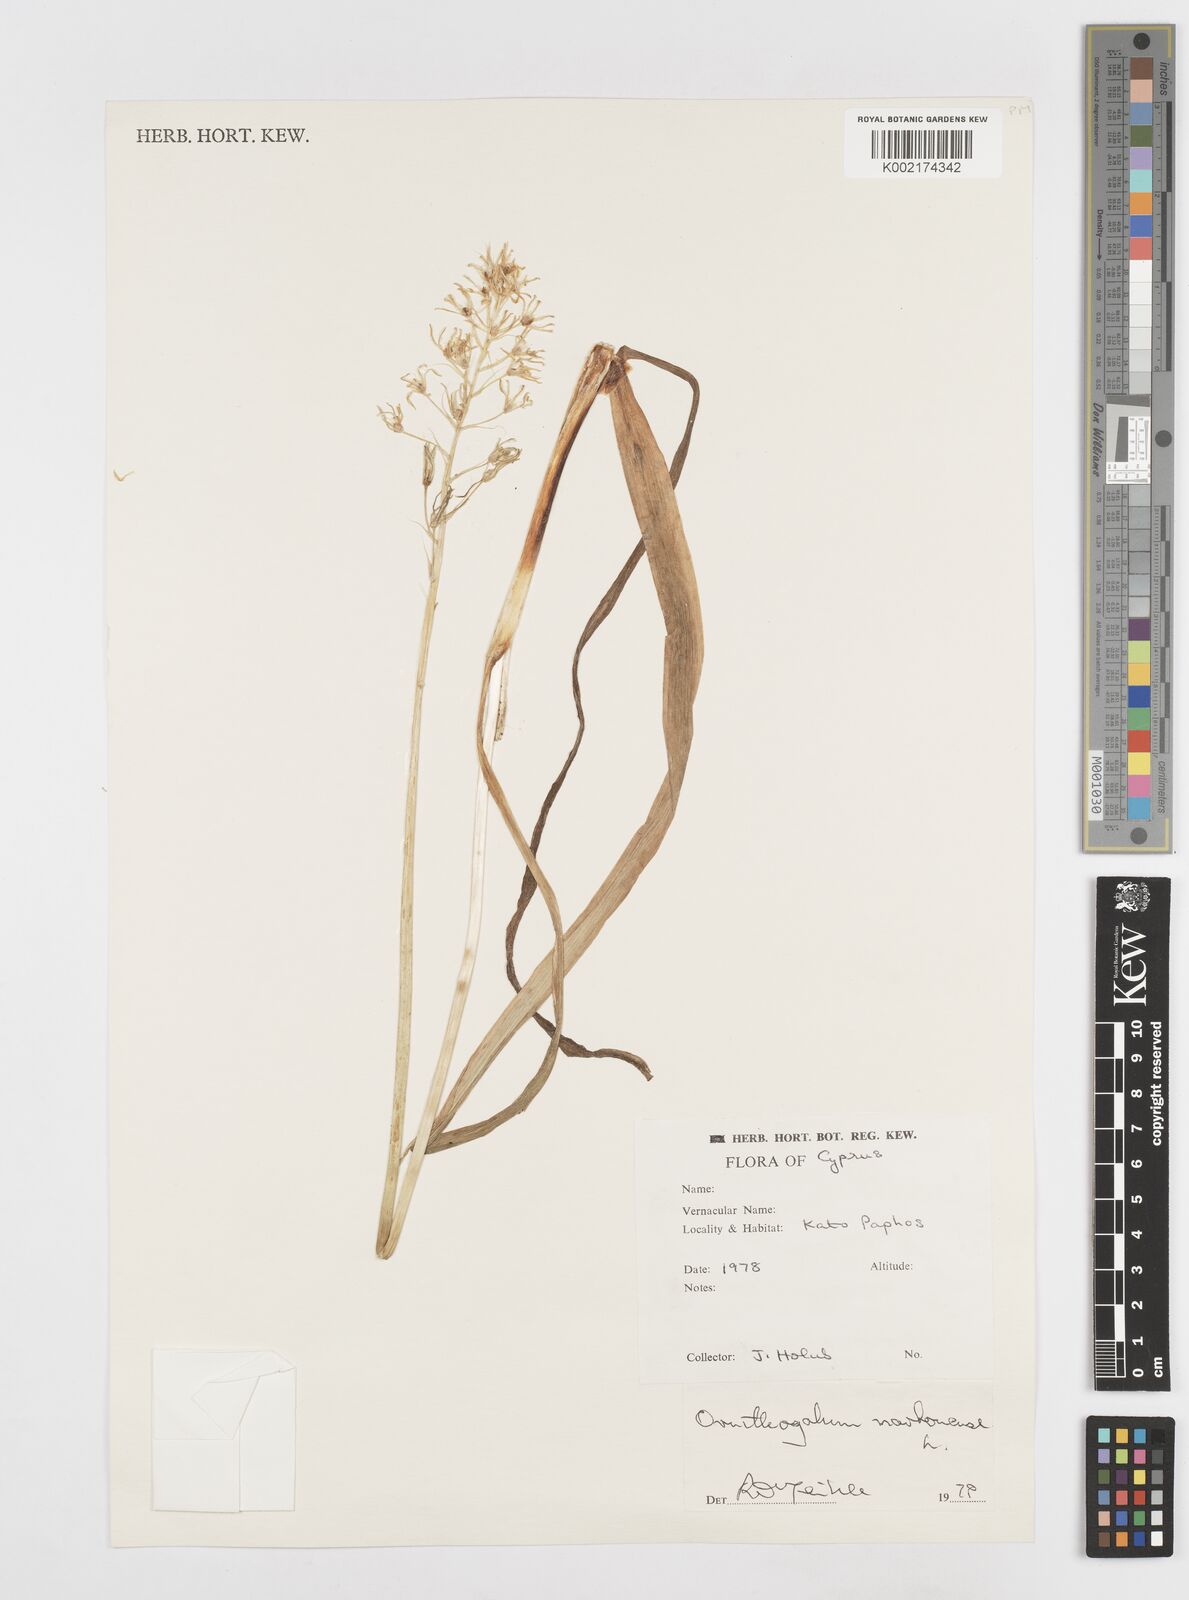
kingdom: Plantae
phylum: Tracheophyta
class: Liliopsida
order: Asparagales
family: Asparagaceae
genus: Ornithogalum
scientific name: Ornithogalum narbonense
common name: Bath-asparagus
